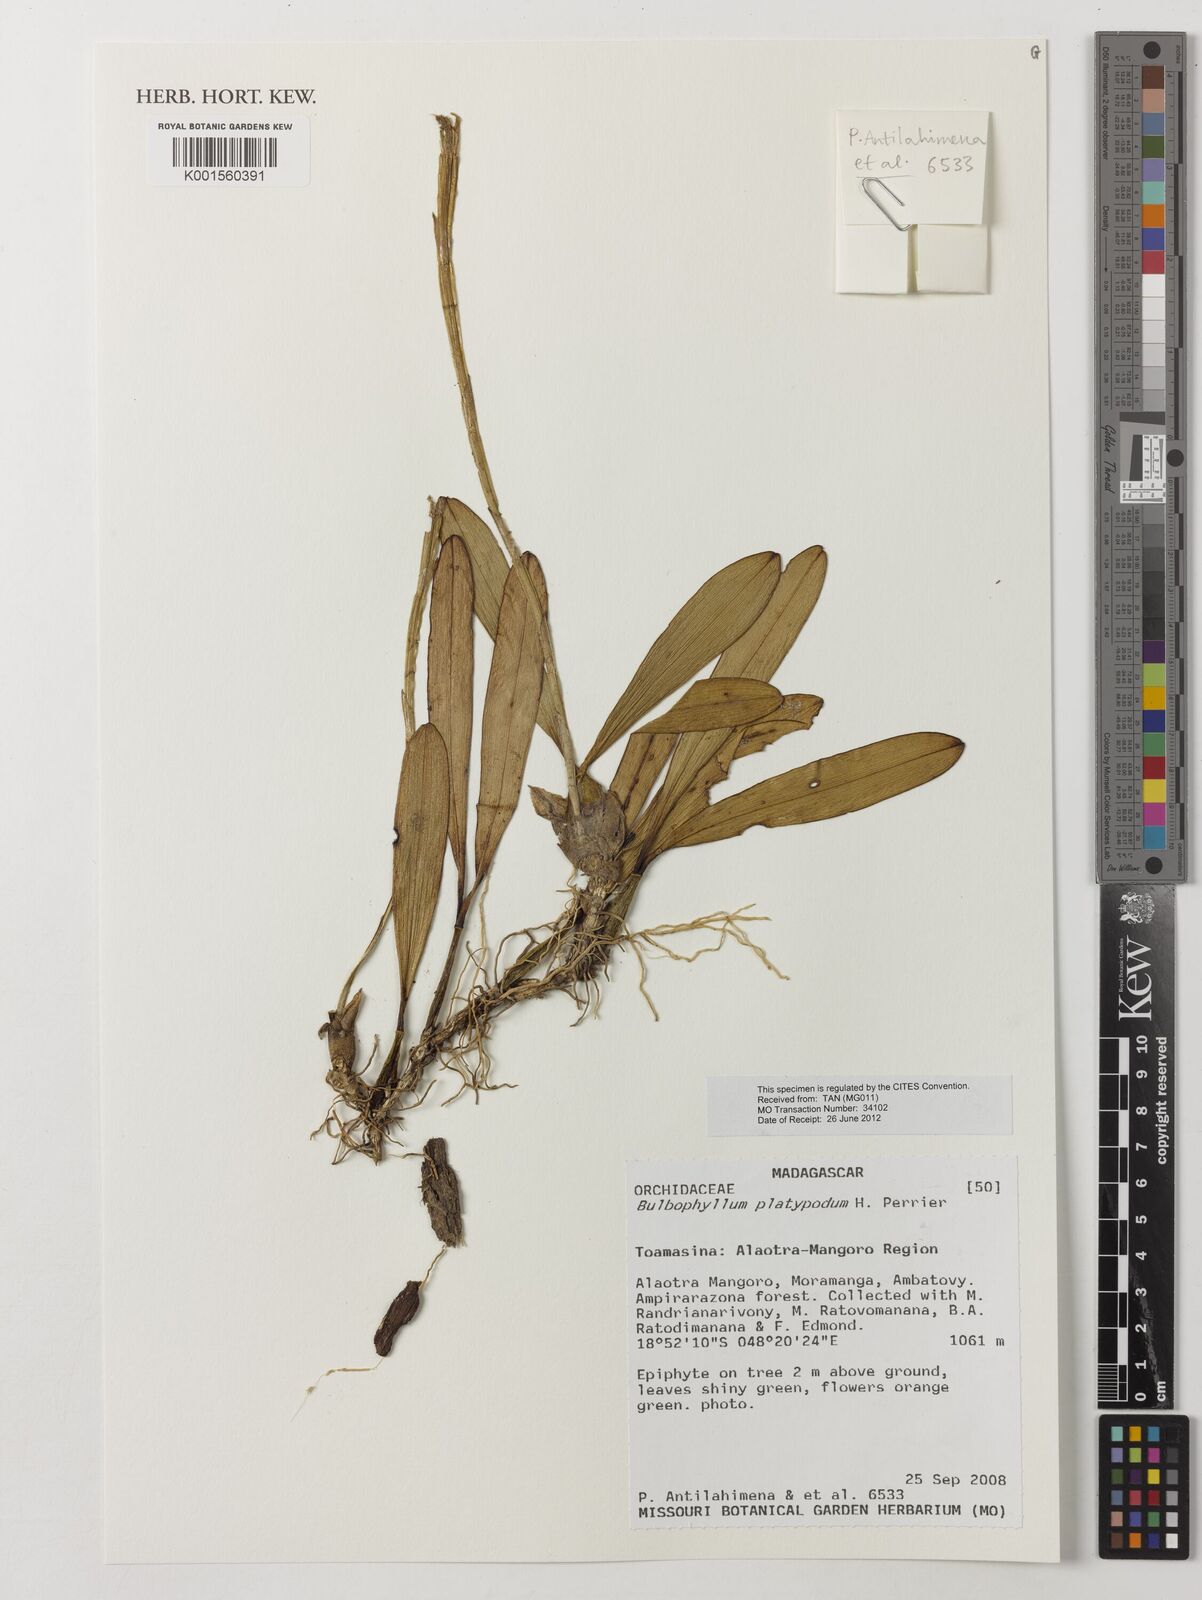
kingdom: Plantae
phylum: Tracheophyta
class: Liliopsida
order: Asparagales
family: Orchidaceae
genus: Bulbophyllum
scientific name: Bulbophyllum platypodum
